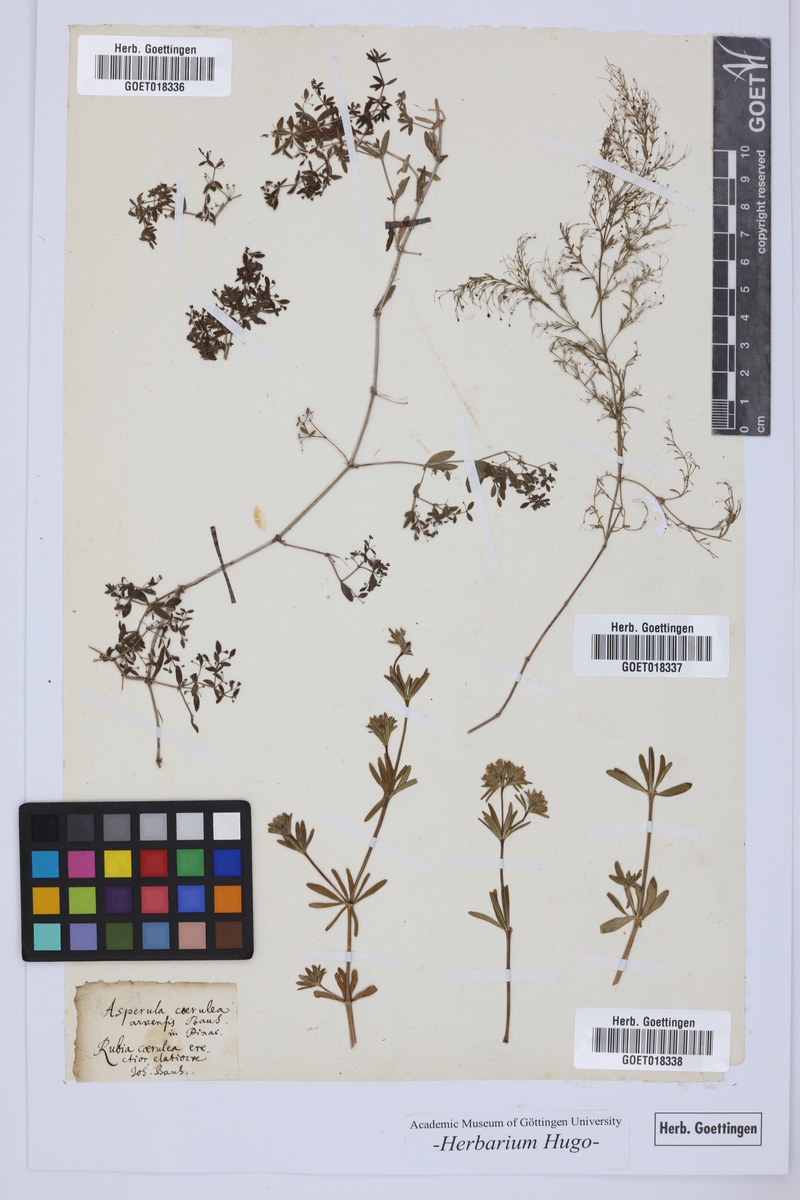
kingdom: Plantae
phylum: Tracheophyta
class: Magnoliopsida
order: Gentianales
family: Rubiaceae
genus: Asperula
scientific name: Asperula arvensis
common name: Blue woodruff
